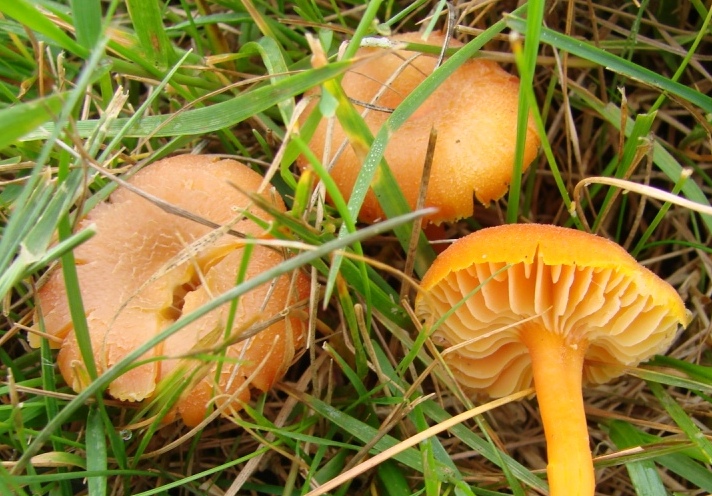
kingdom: Fungi
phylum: Basidiomycota
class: Agaricomycetes
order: Agaricales
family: Hygrophoraceae
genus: Hygrocybe
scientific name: Hygrocybe miniata
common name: mønje-vokshat
